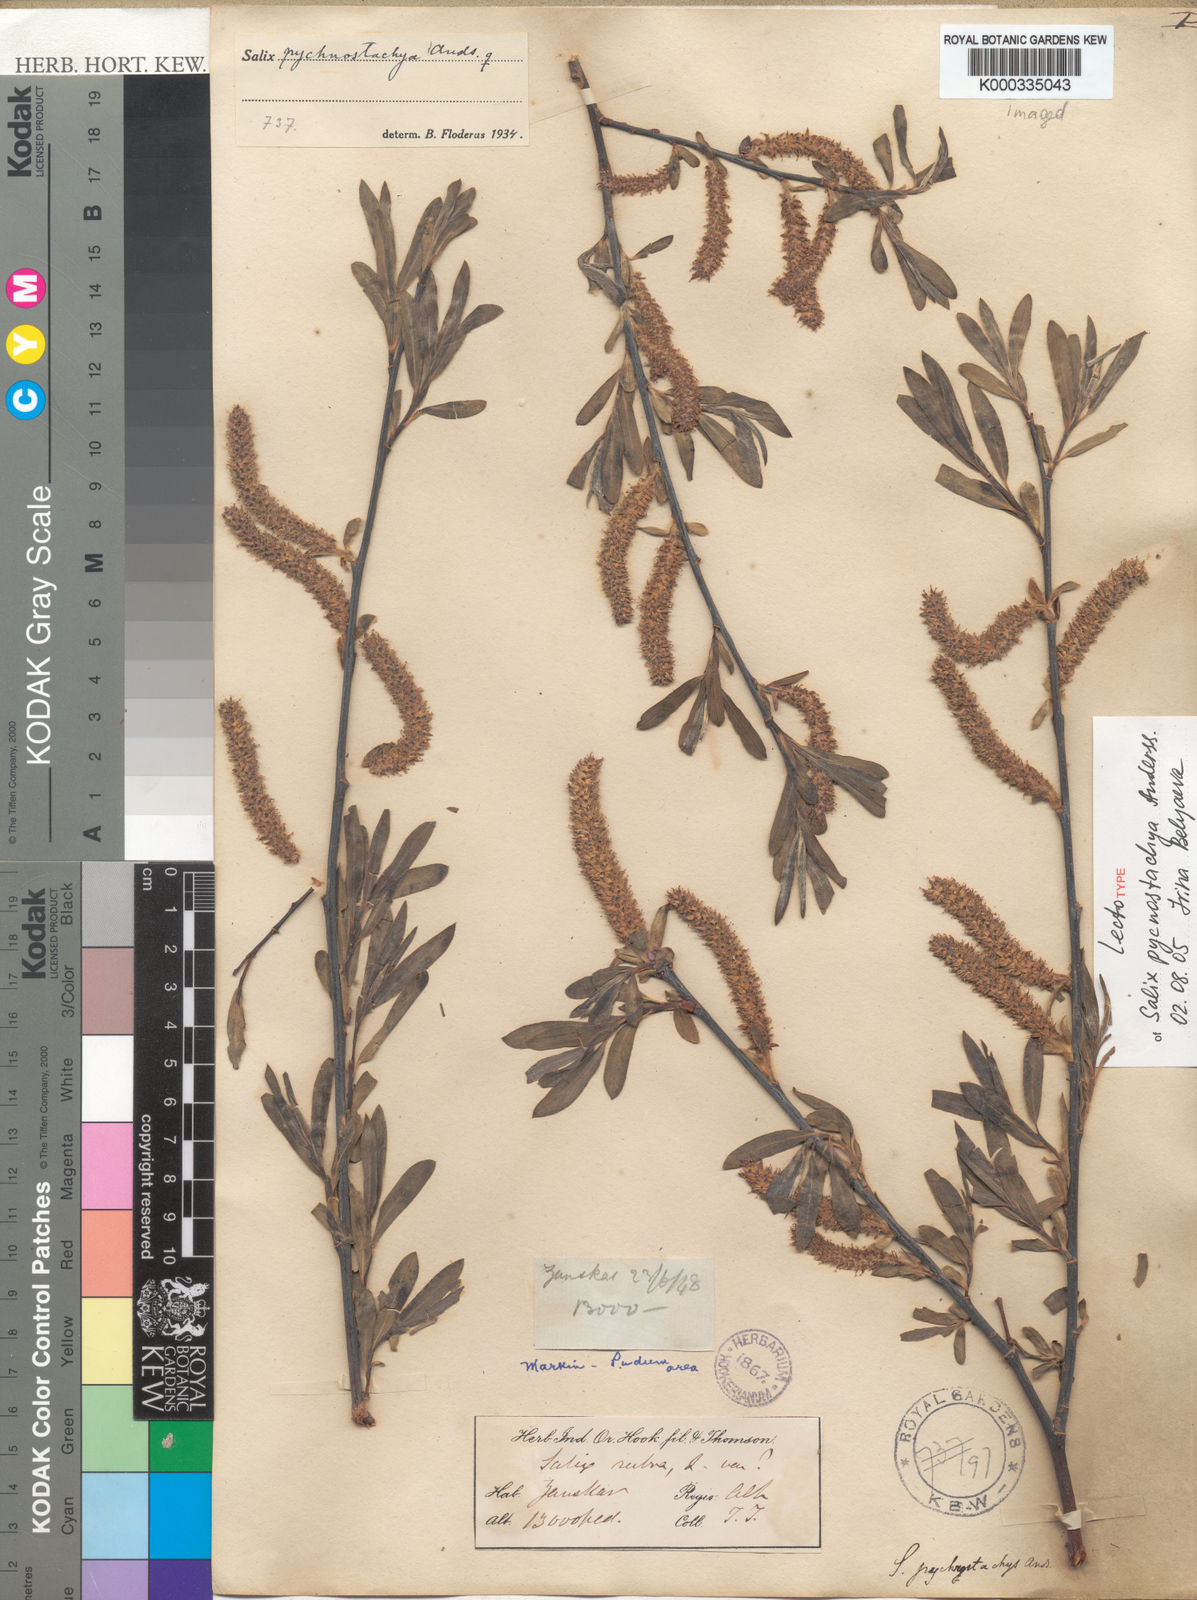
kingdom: Plantae
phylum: Tracheophyta
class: Magnoliopsida
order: Malpighiales
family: Salicaceae
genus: Salix
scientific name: Salix pycnostachya
